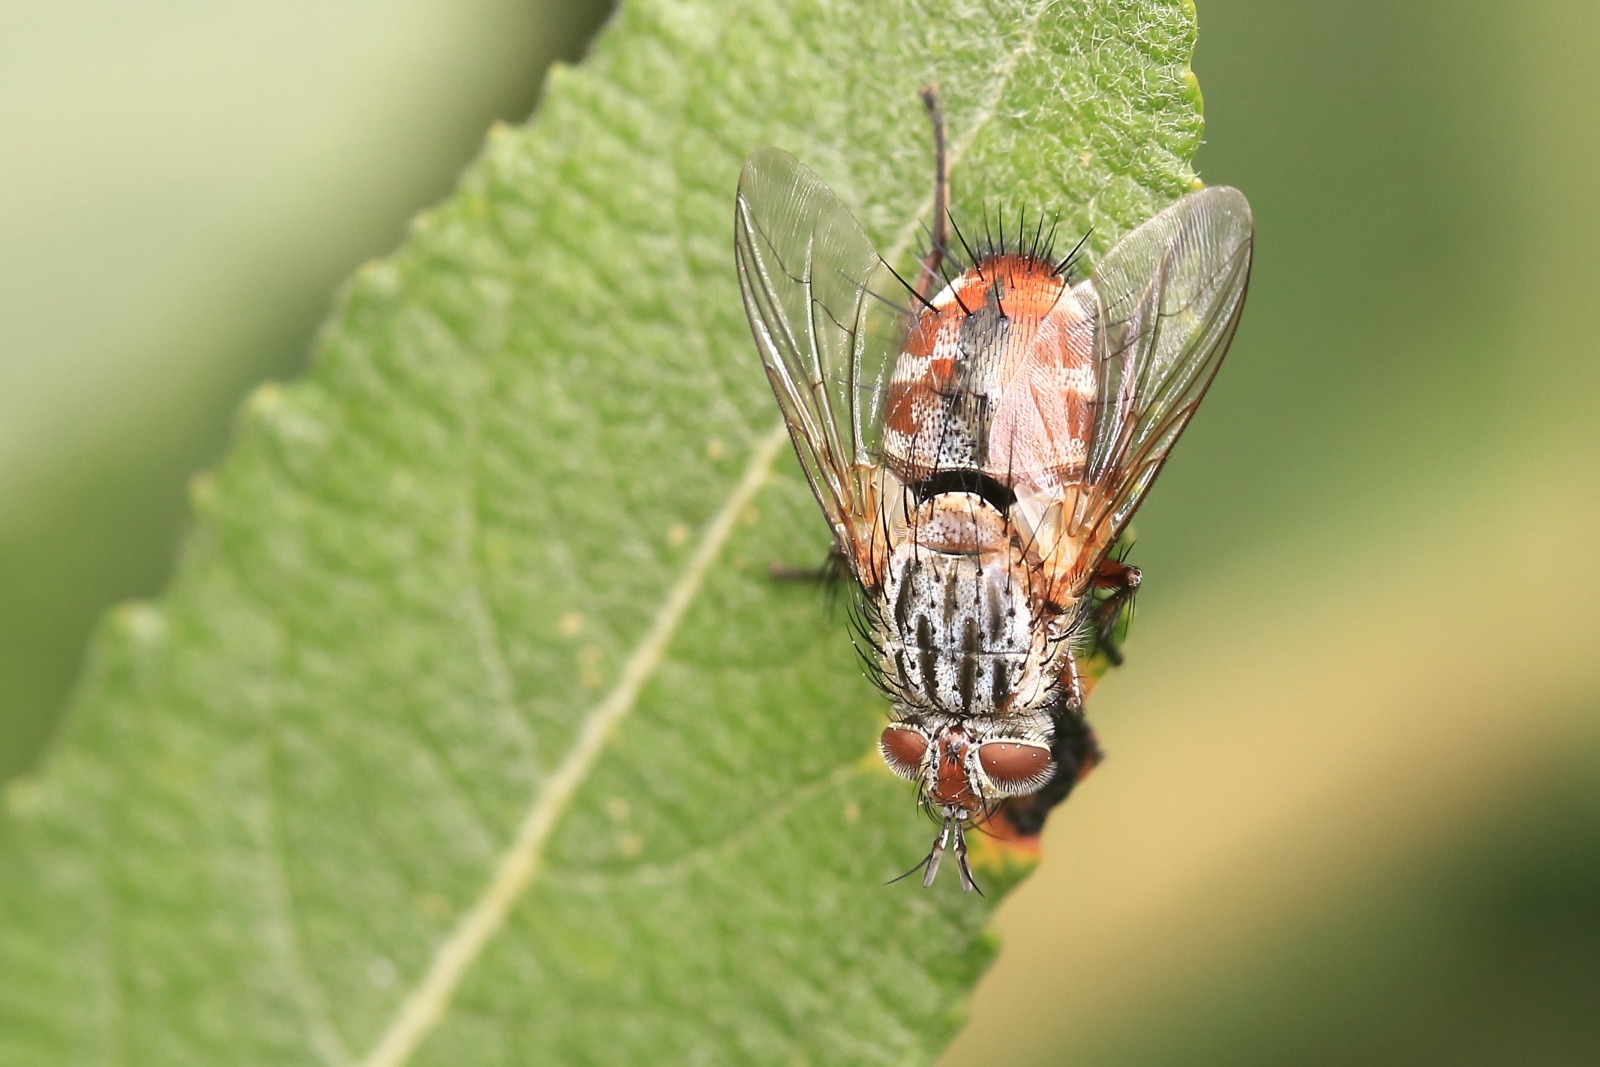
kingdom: Animalia
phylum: Arthropoda
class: Insecta
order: Diptera
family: Tachinidae
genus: Linnaemya
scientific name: Linnaemya vulpina
